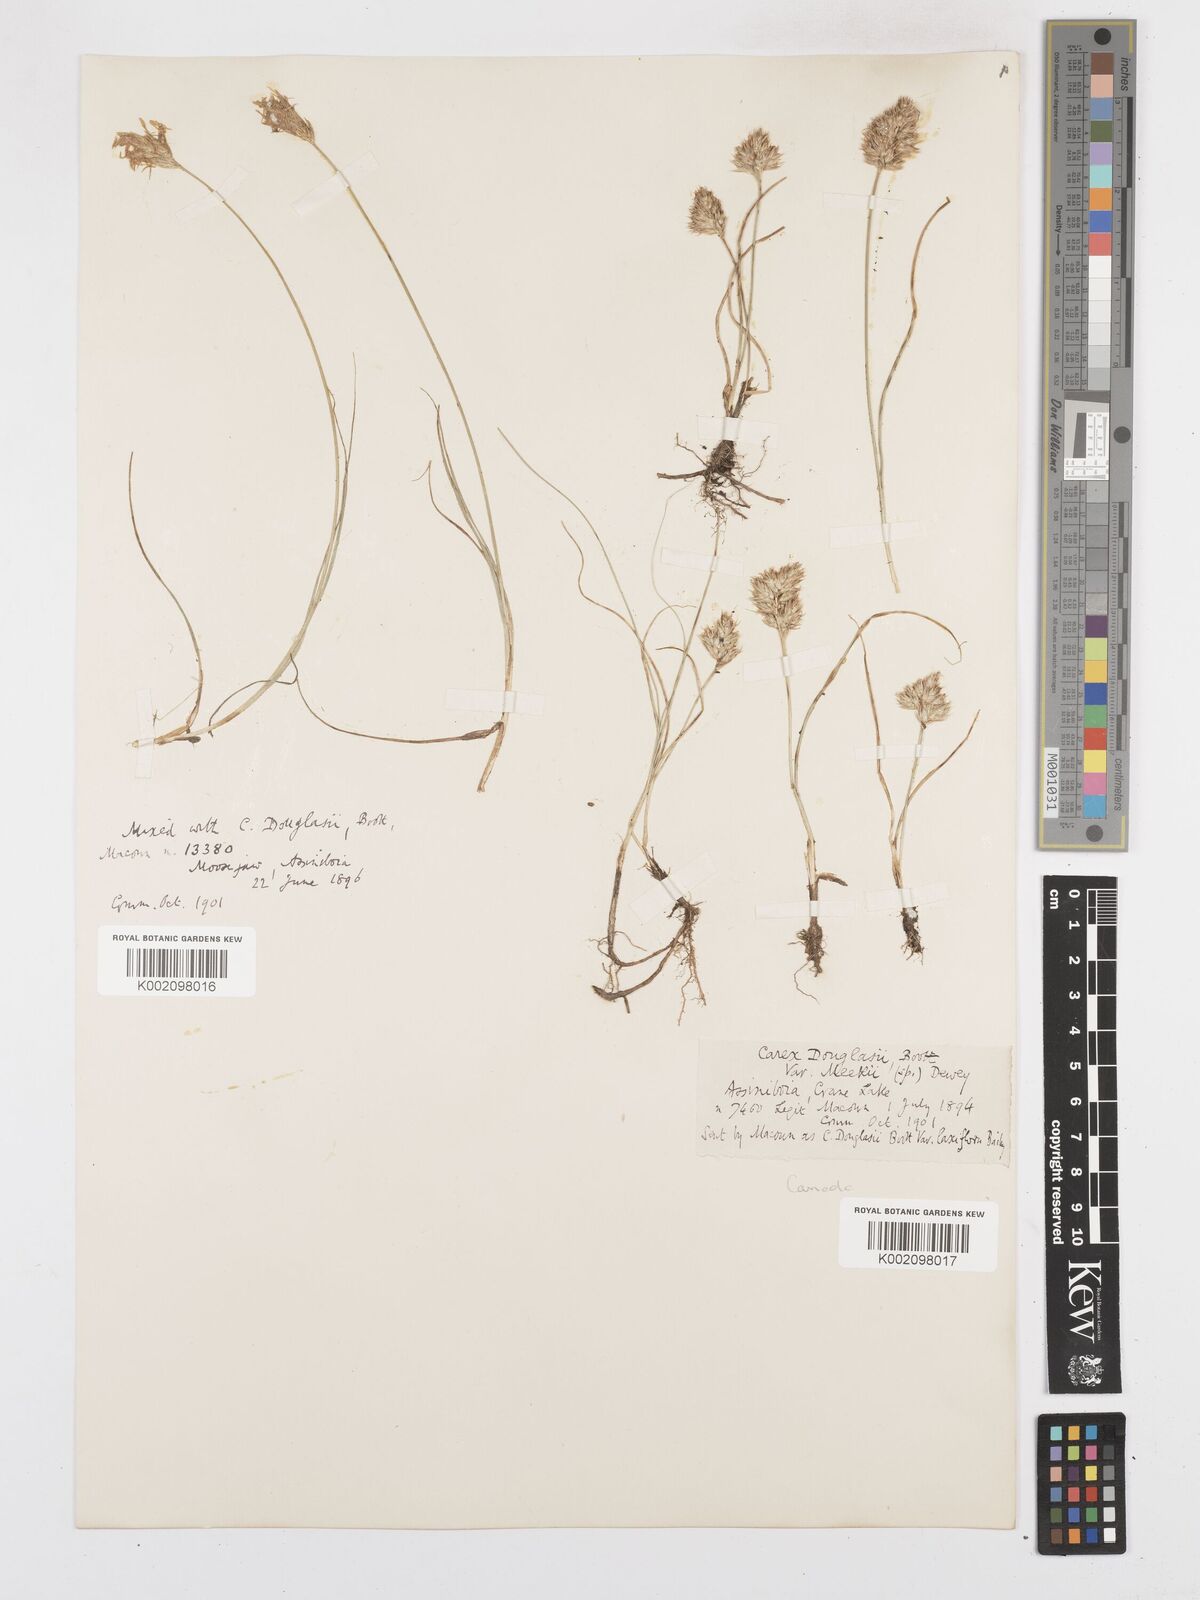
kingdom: Plantae
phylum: Tracheophyta
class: Liliopsida
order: Poales
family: Cyperaceae
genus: Carex
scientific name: Carex douglasii
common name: Douglas' sedge
